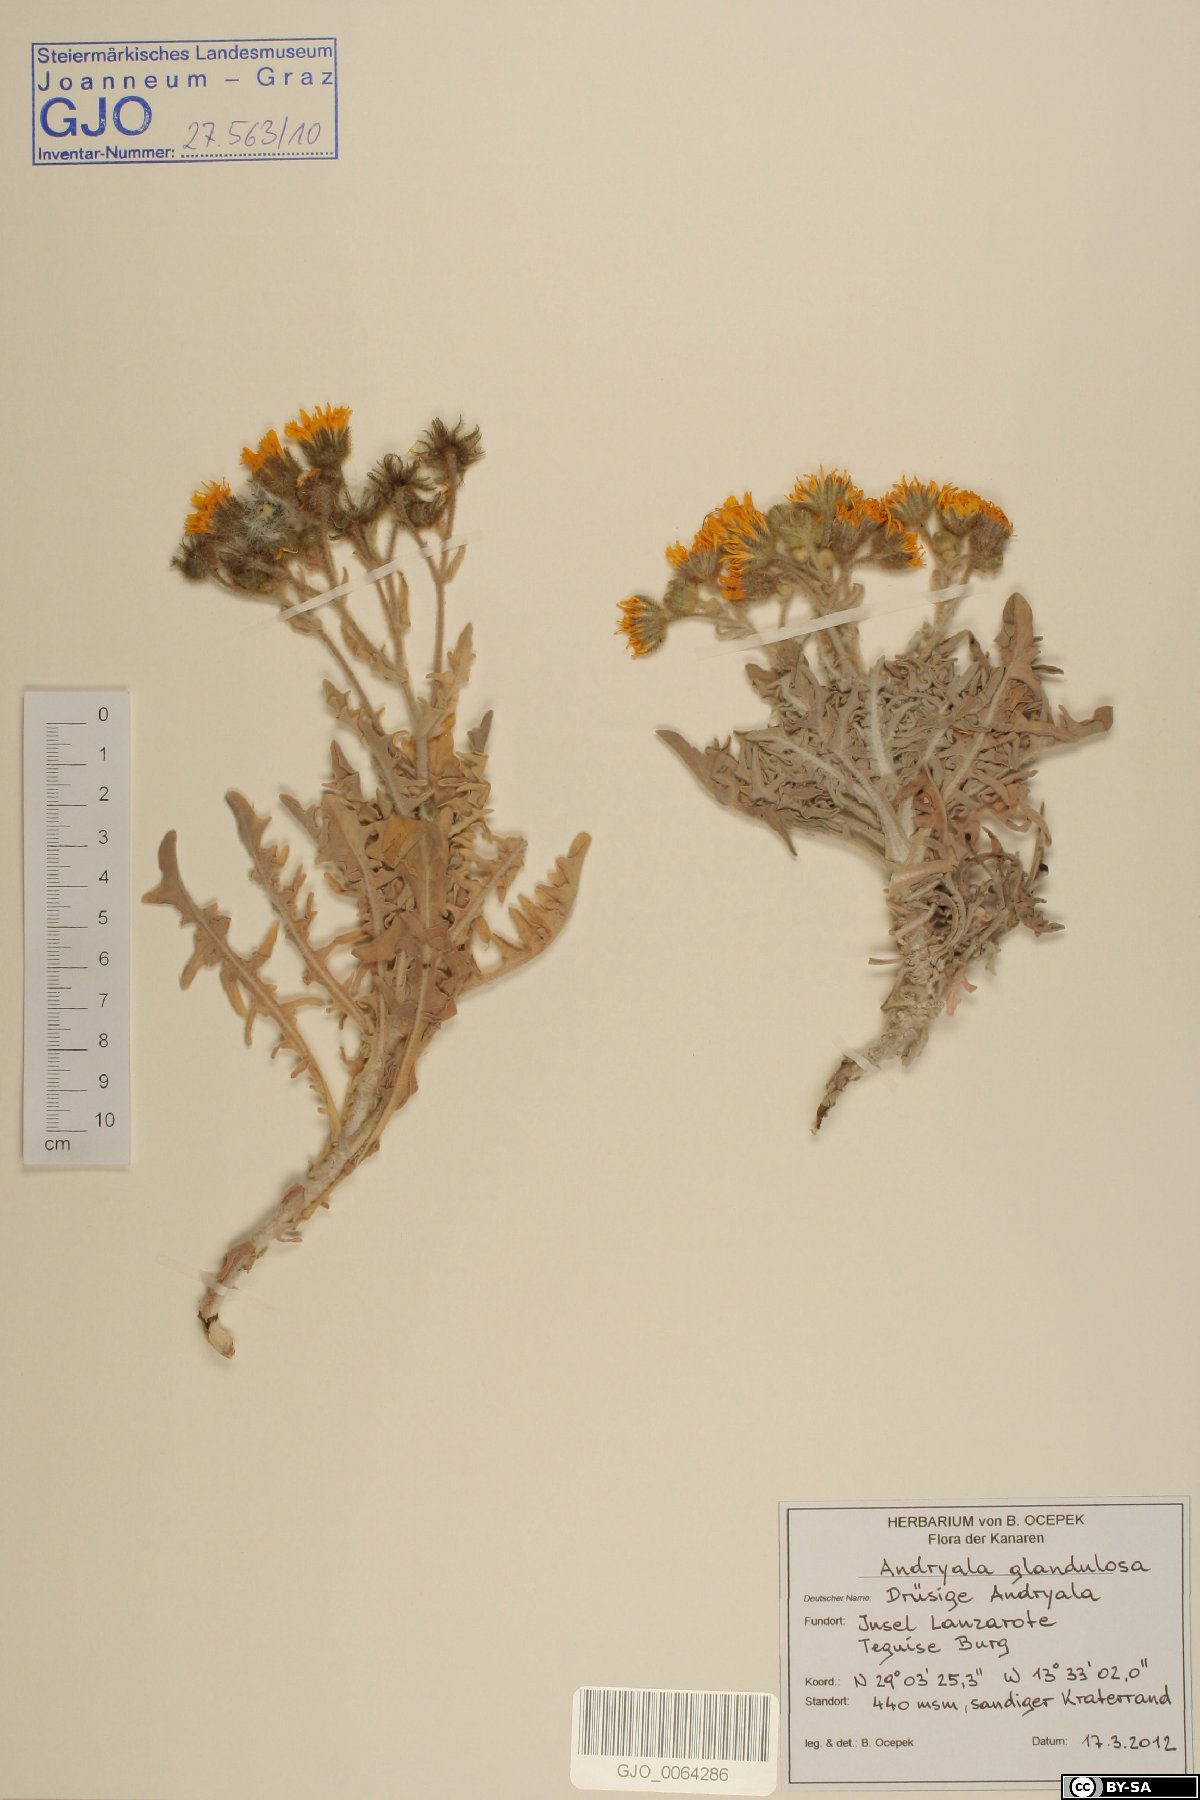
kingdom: Plantae
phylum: Tracheophyta
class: Magnoliopsida
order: Asterales
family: Asteraceae
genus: Andryala
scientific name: Andryala glandulosa
